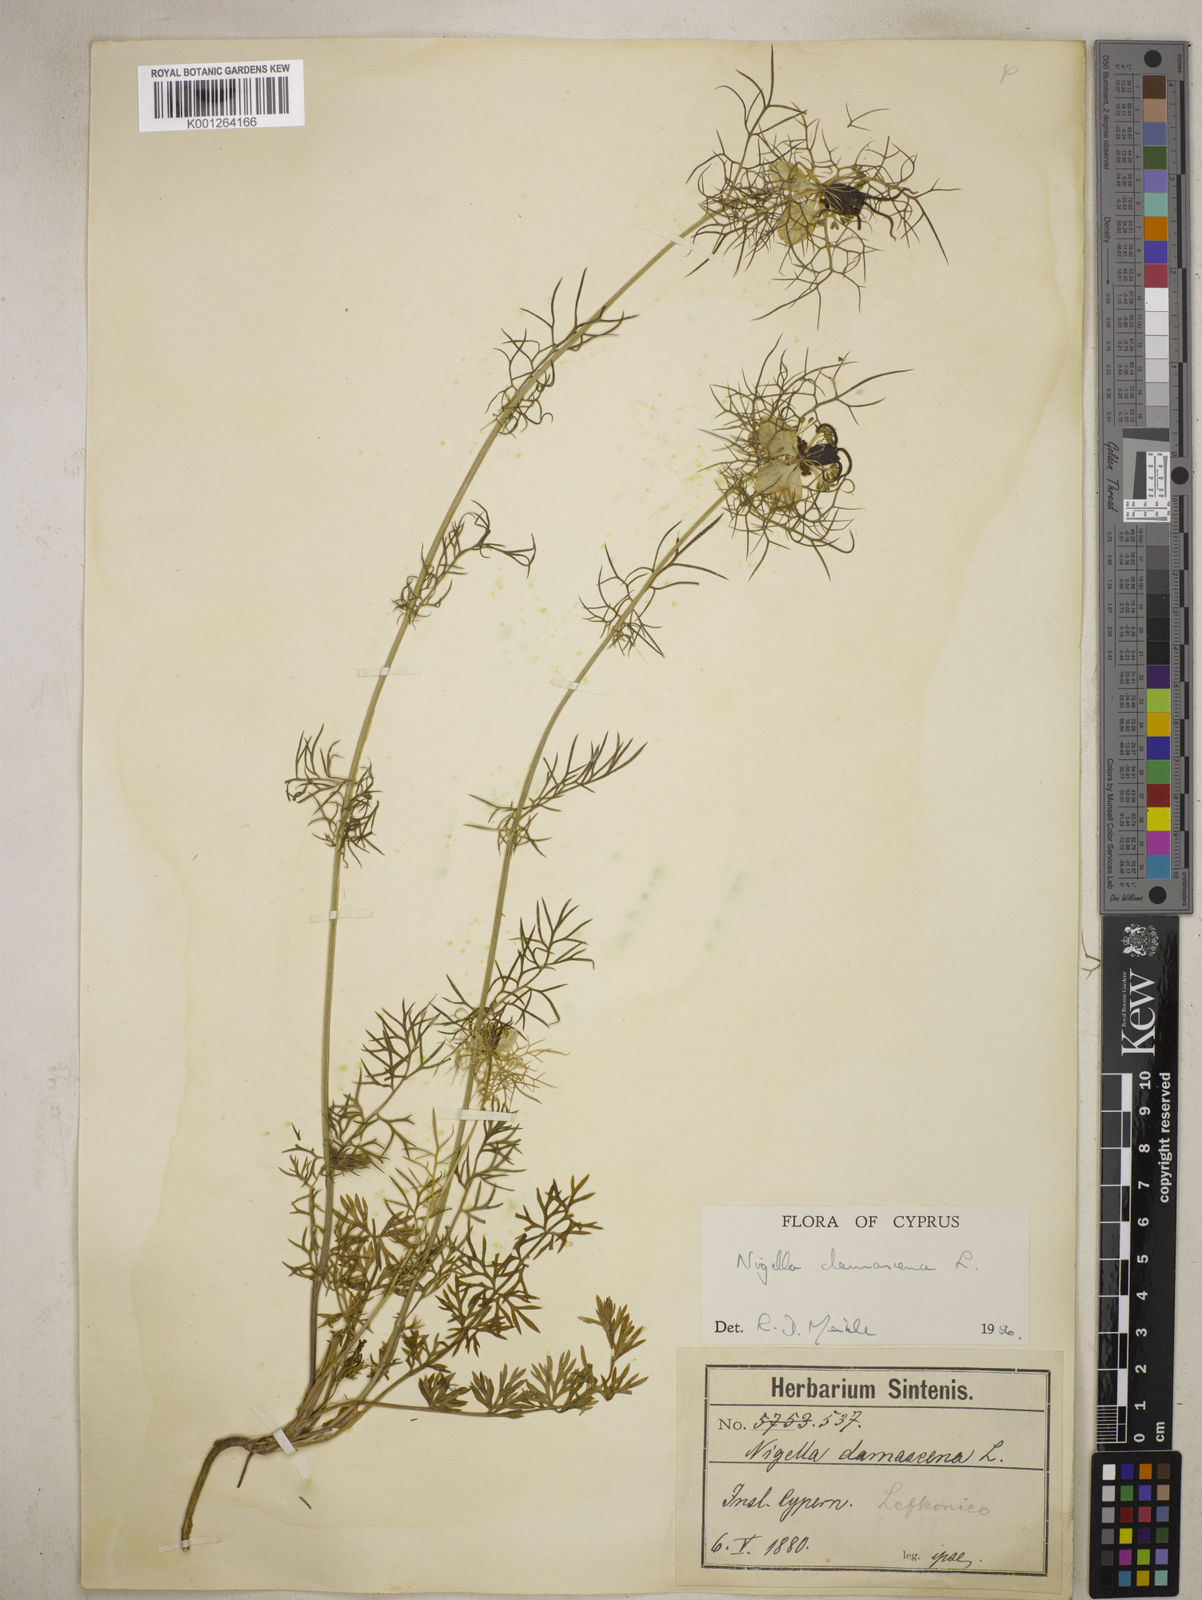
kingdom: Plantae
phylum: Tracheophyta
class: Magnoliopsida
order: Ranunculales
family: Ranunculaceae
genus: Nigella
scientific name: Nigella damascena
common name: Love-in-a-mist
